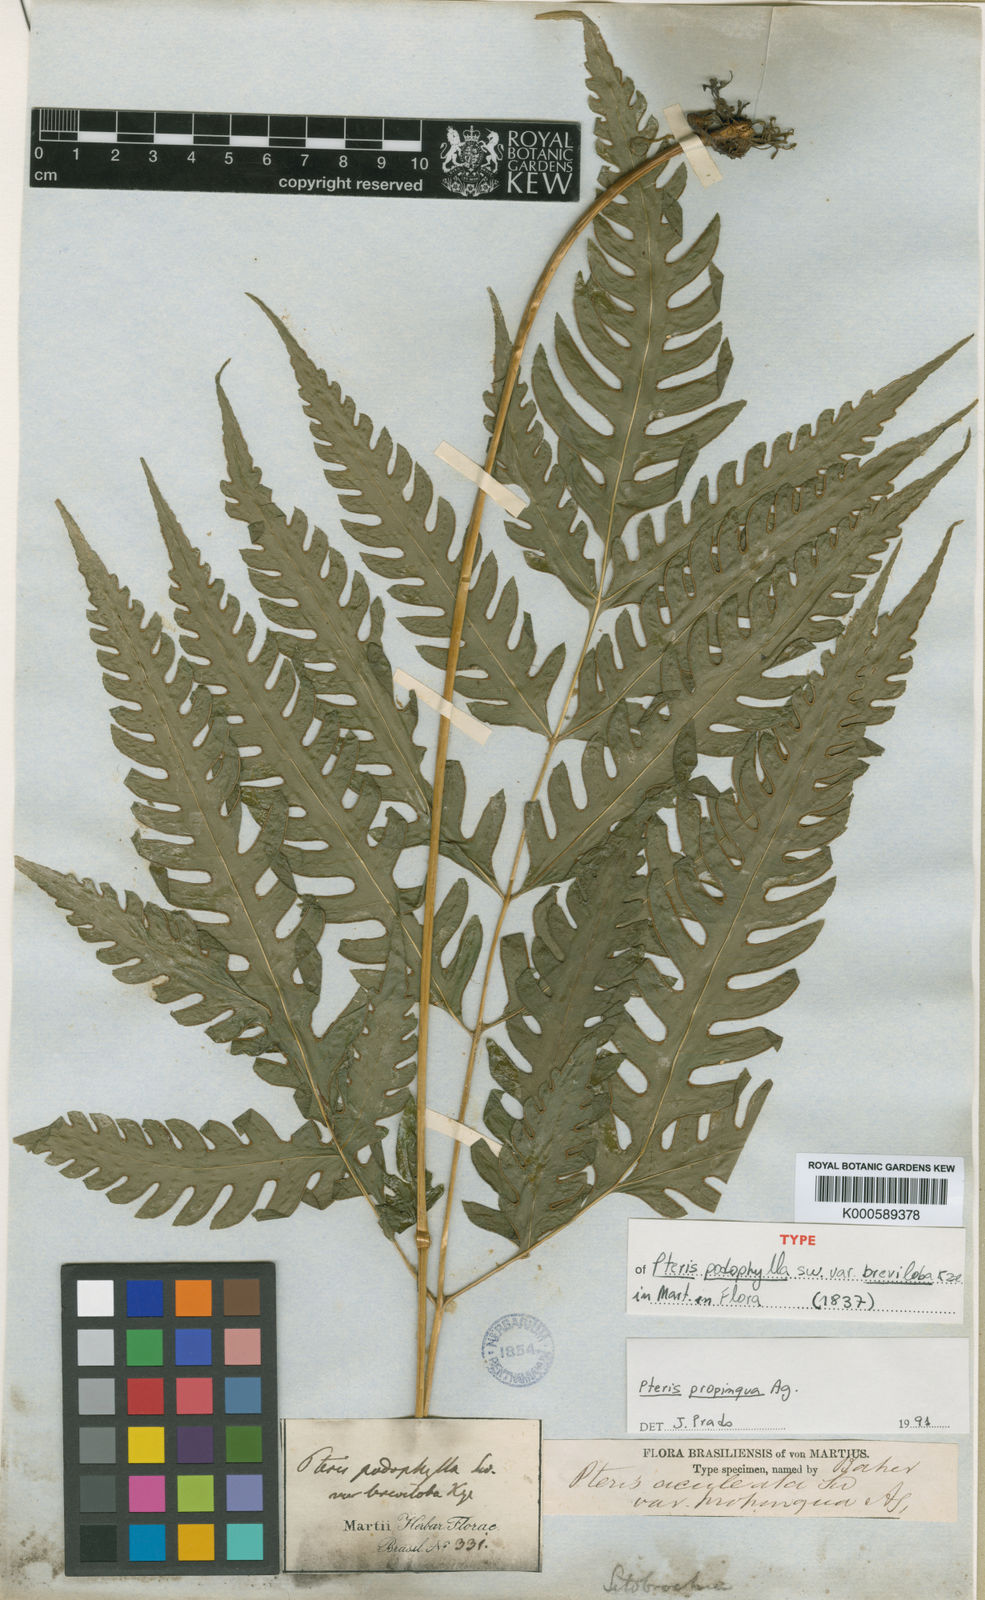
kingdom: Plantae
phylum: Tracheophyta
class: Polypodiopsida
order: Polypodiales
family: Pteridaceae
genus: Pteris
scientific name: Pteris propinqua
